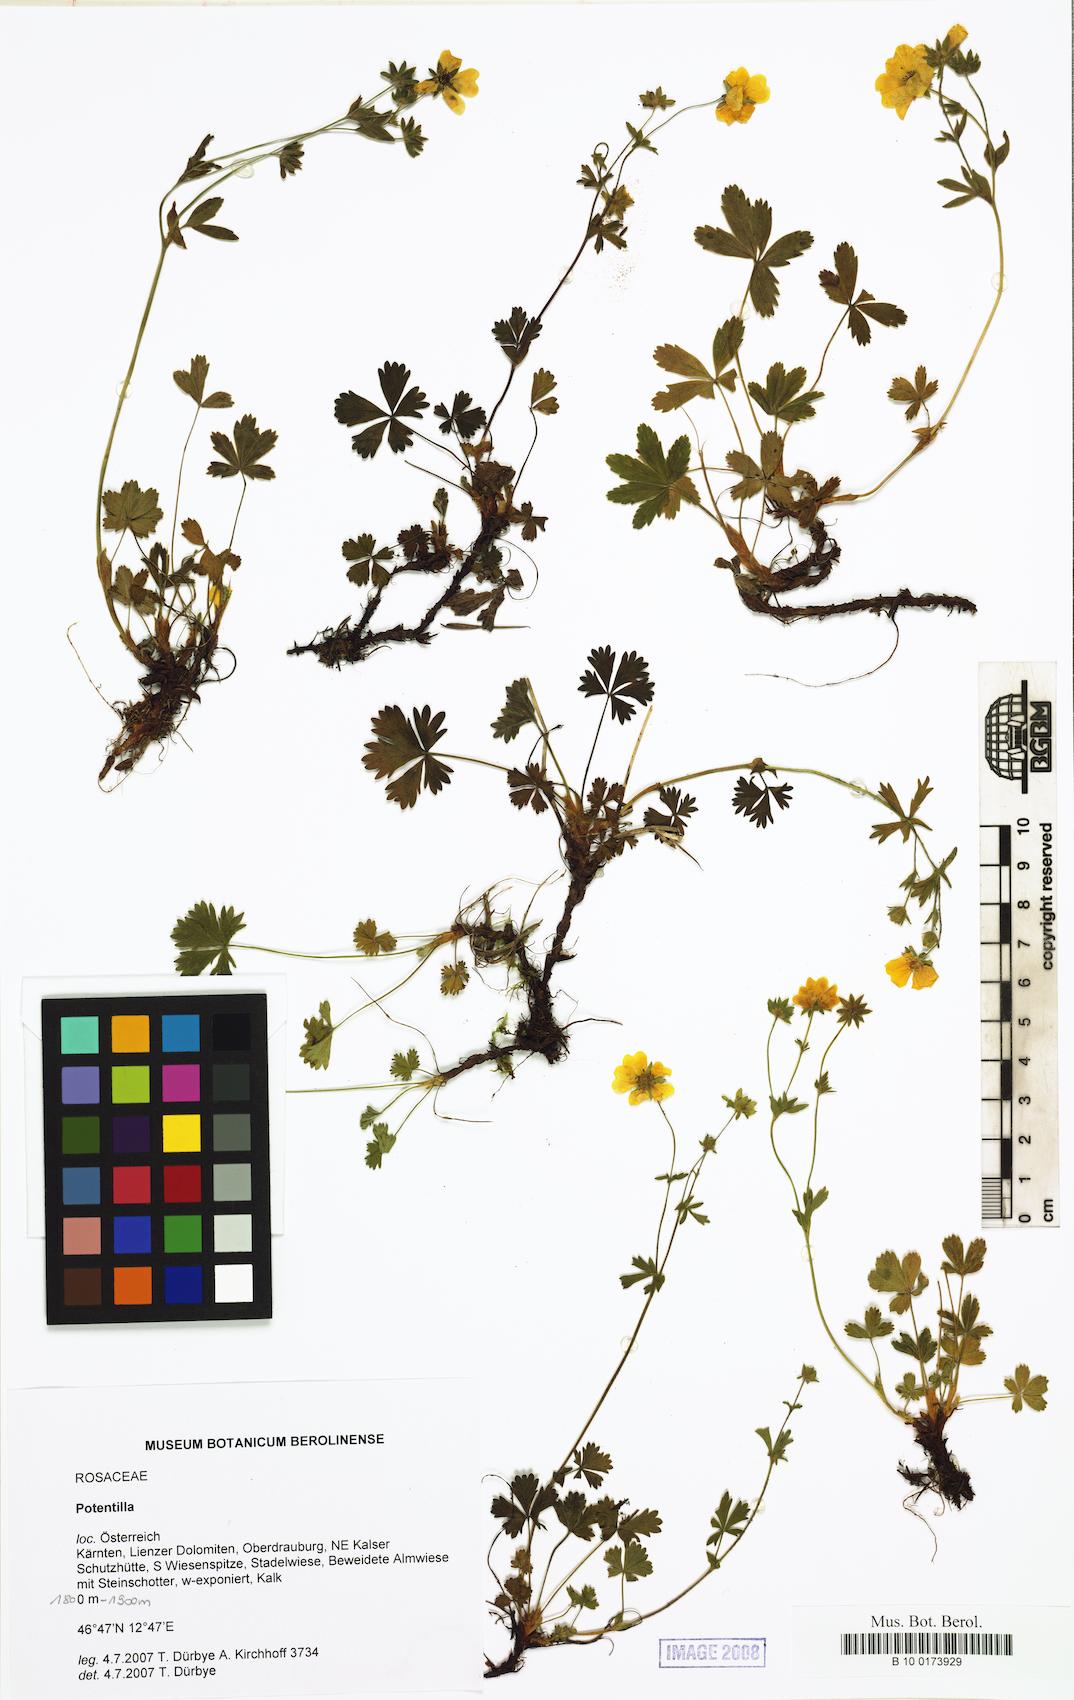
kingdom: Plantae
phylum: Tracheophyta
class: Magnoliopsida
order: Rosales
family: Rosaceae
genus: Potentilla
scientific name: Potentilla
